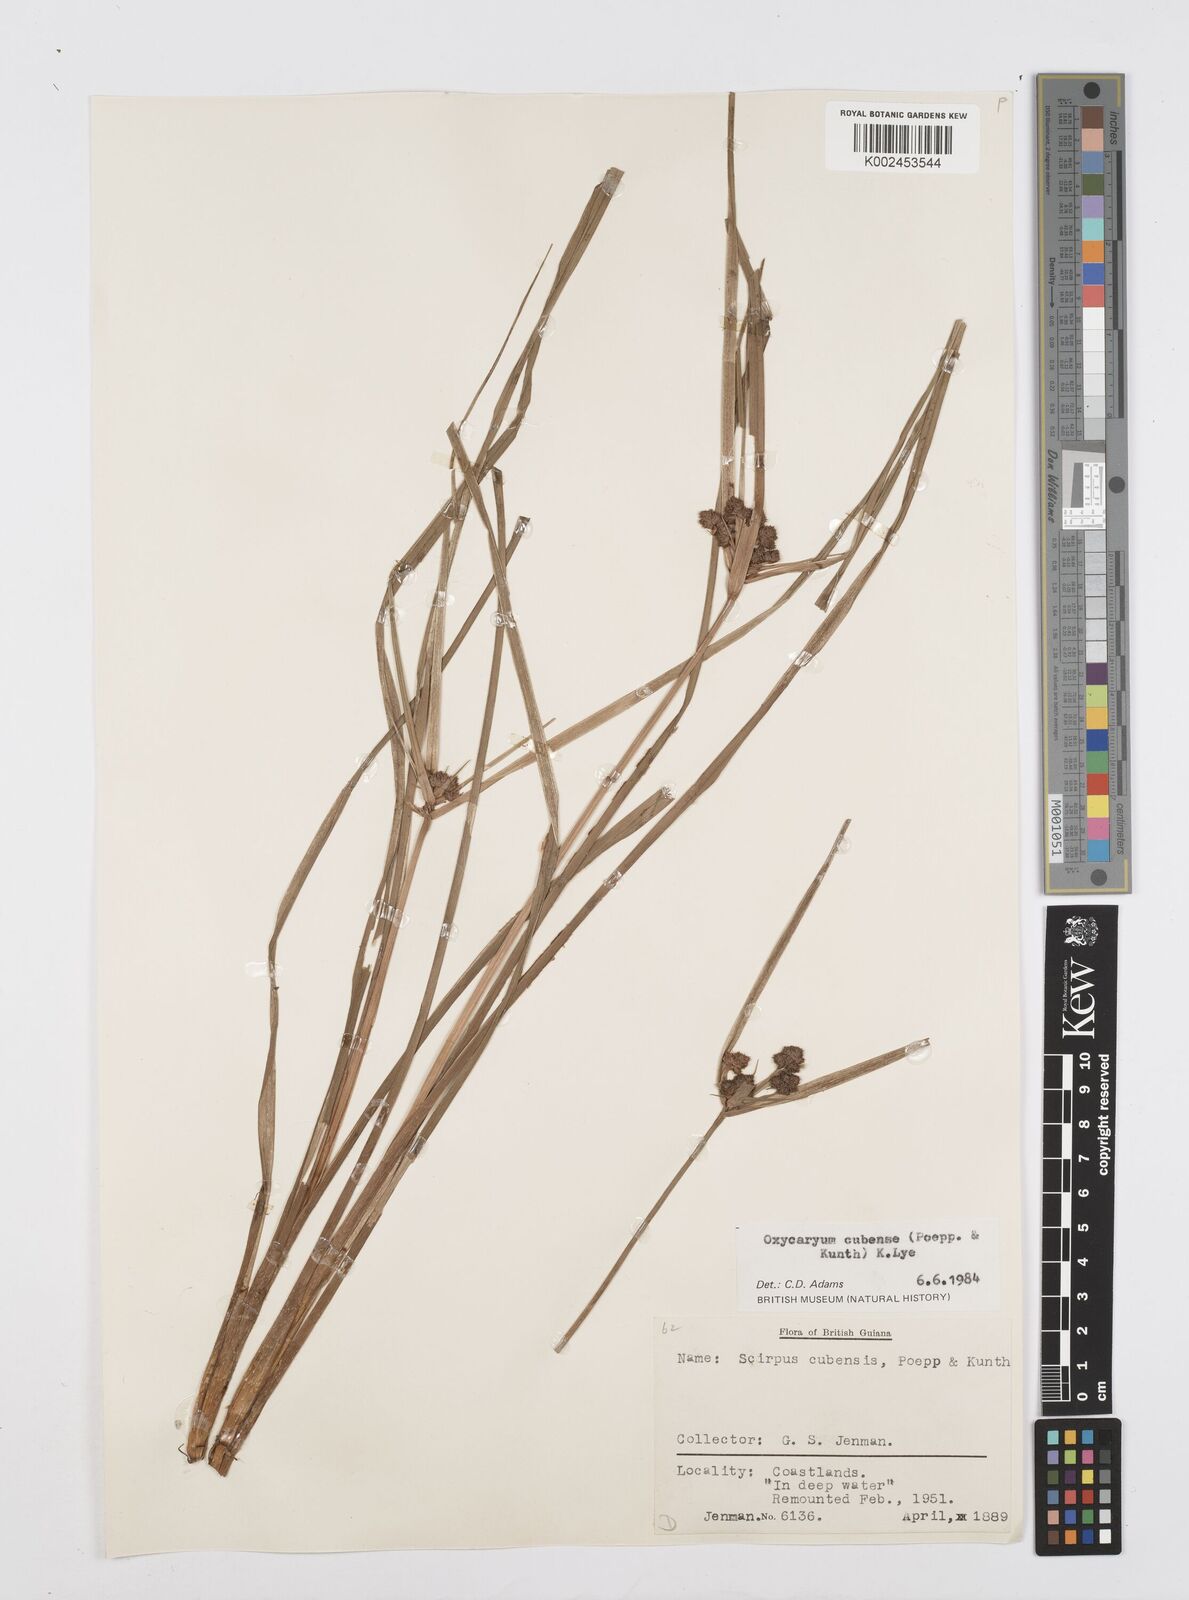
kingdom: Plantae
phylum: Tracheophyta
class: Liliopsida
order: Poales
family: Cyperaceae
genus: Cyperus
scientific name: Cyperus elegans
